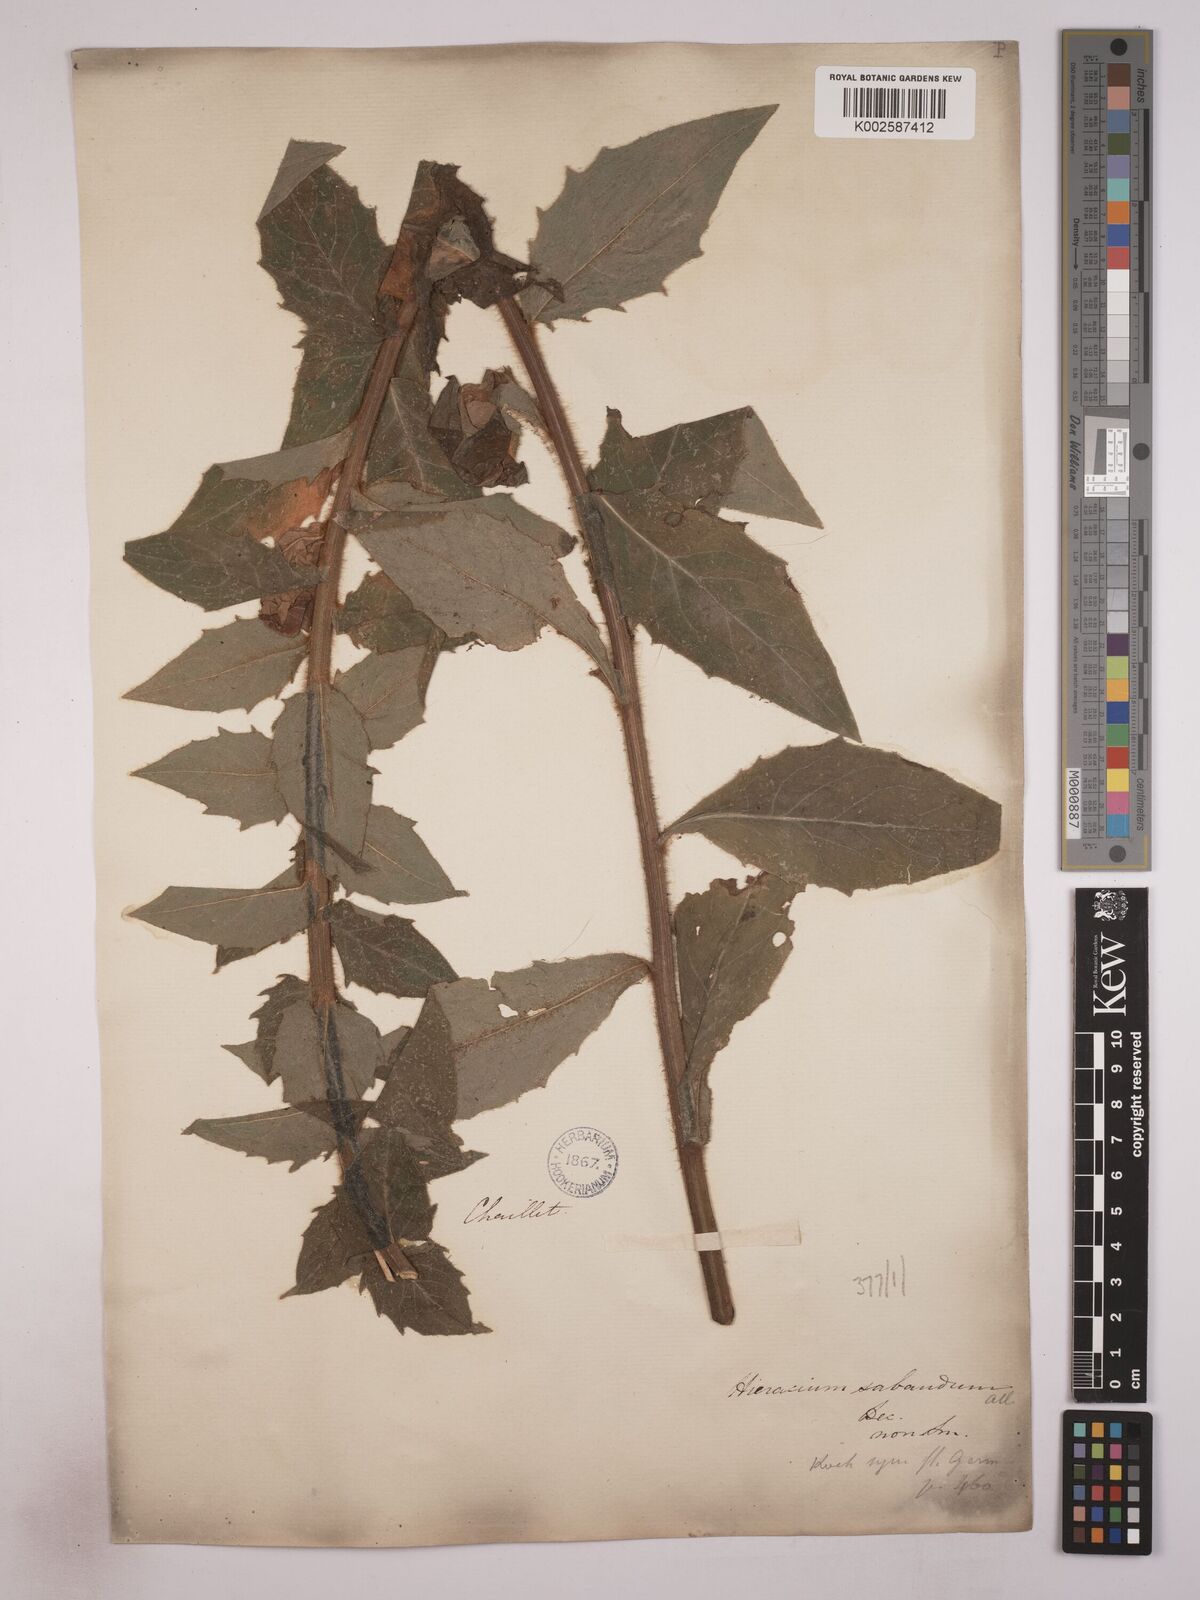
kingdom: Plantae
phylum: Tracheophyta
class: Magnoliopsida
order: Asterales
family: Asteraceae
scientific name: Asteraceae
